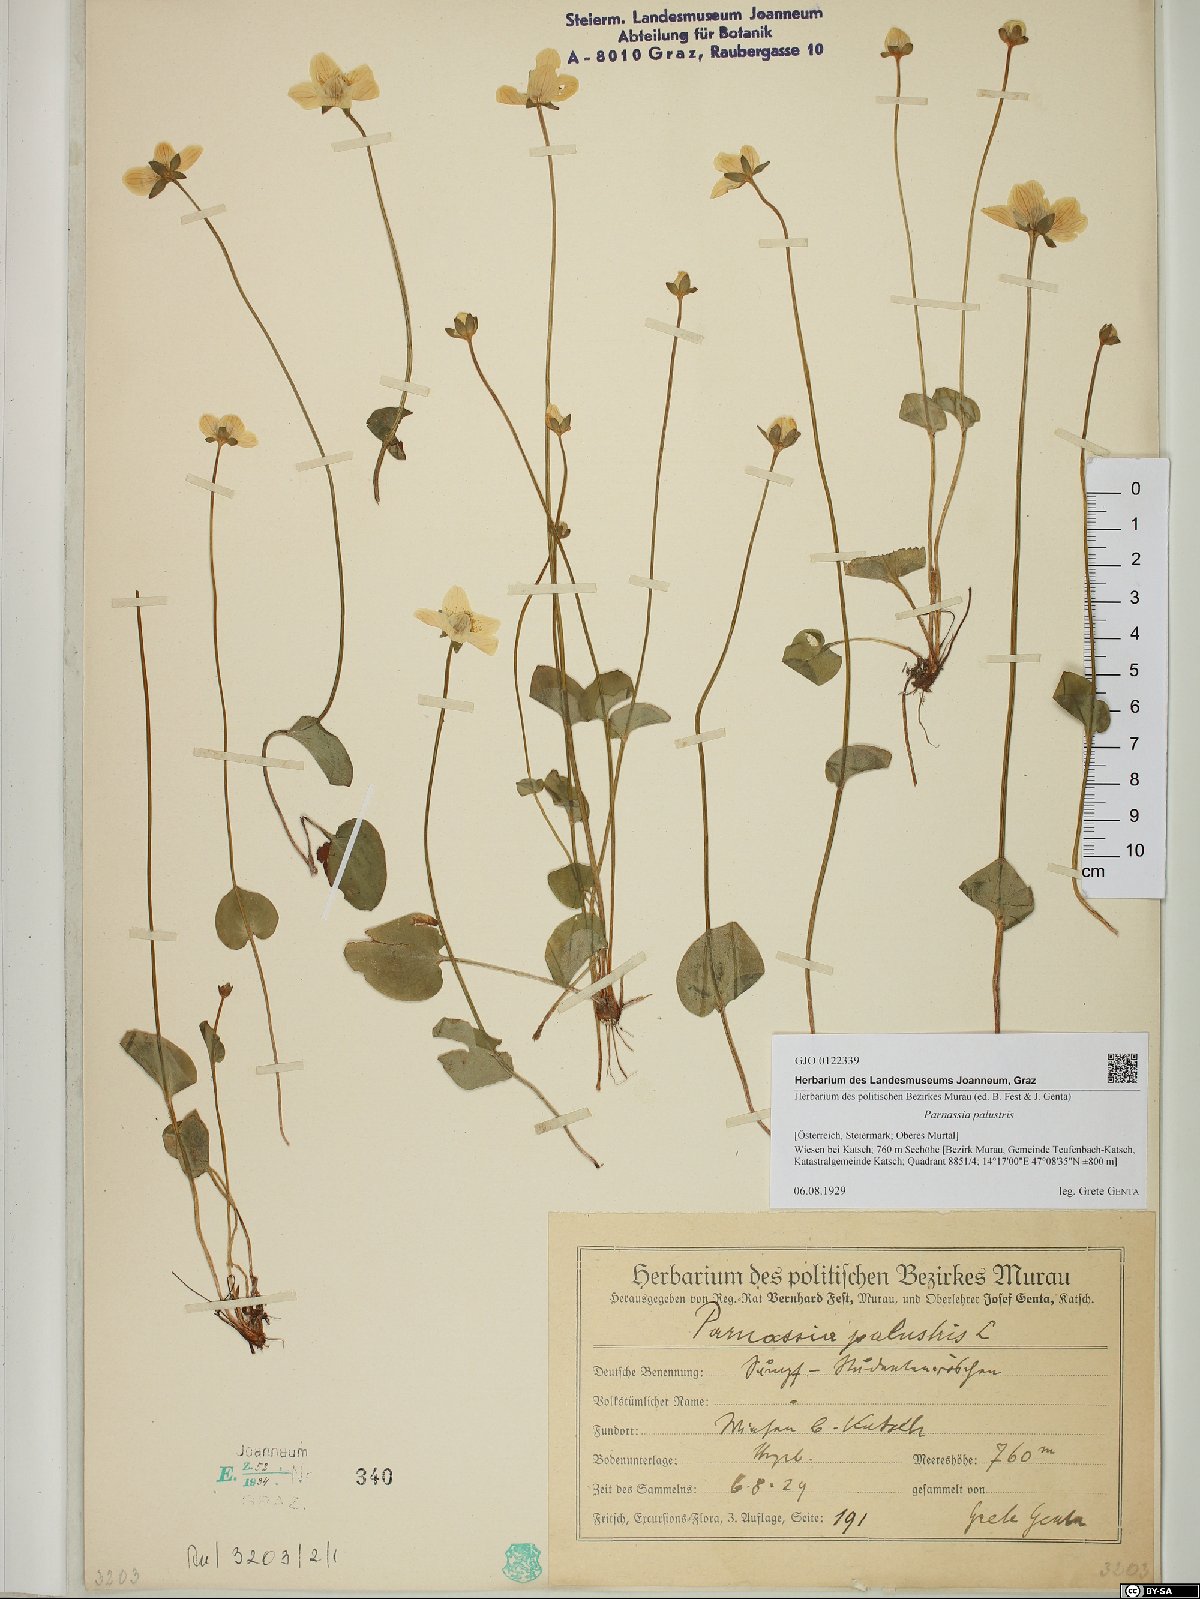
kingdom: Plantae
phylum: Tracheophyta
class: Magnoliopsida
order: Celastrales
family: Parnassiaceae
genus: Parnassia
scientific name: Parnassia palustris
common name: Grass-of-parnassus
